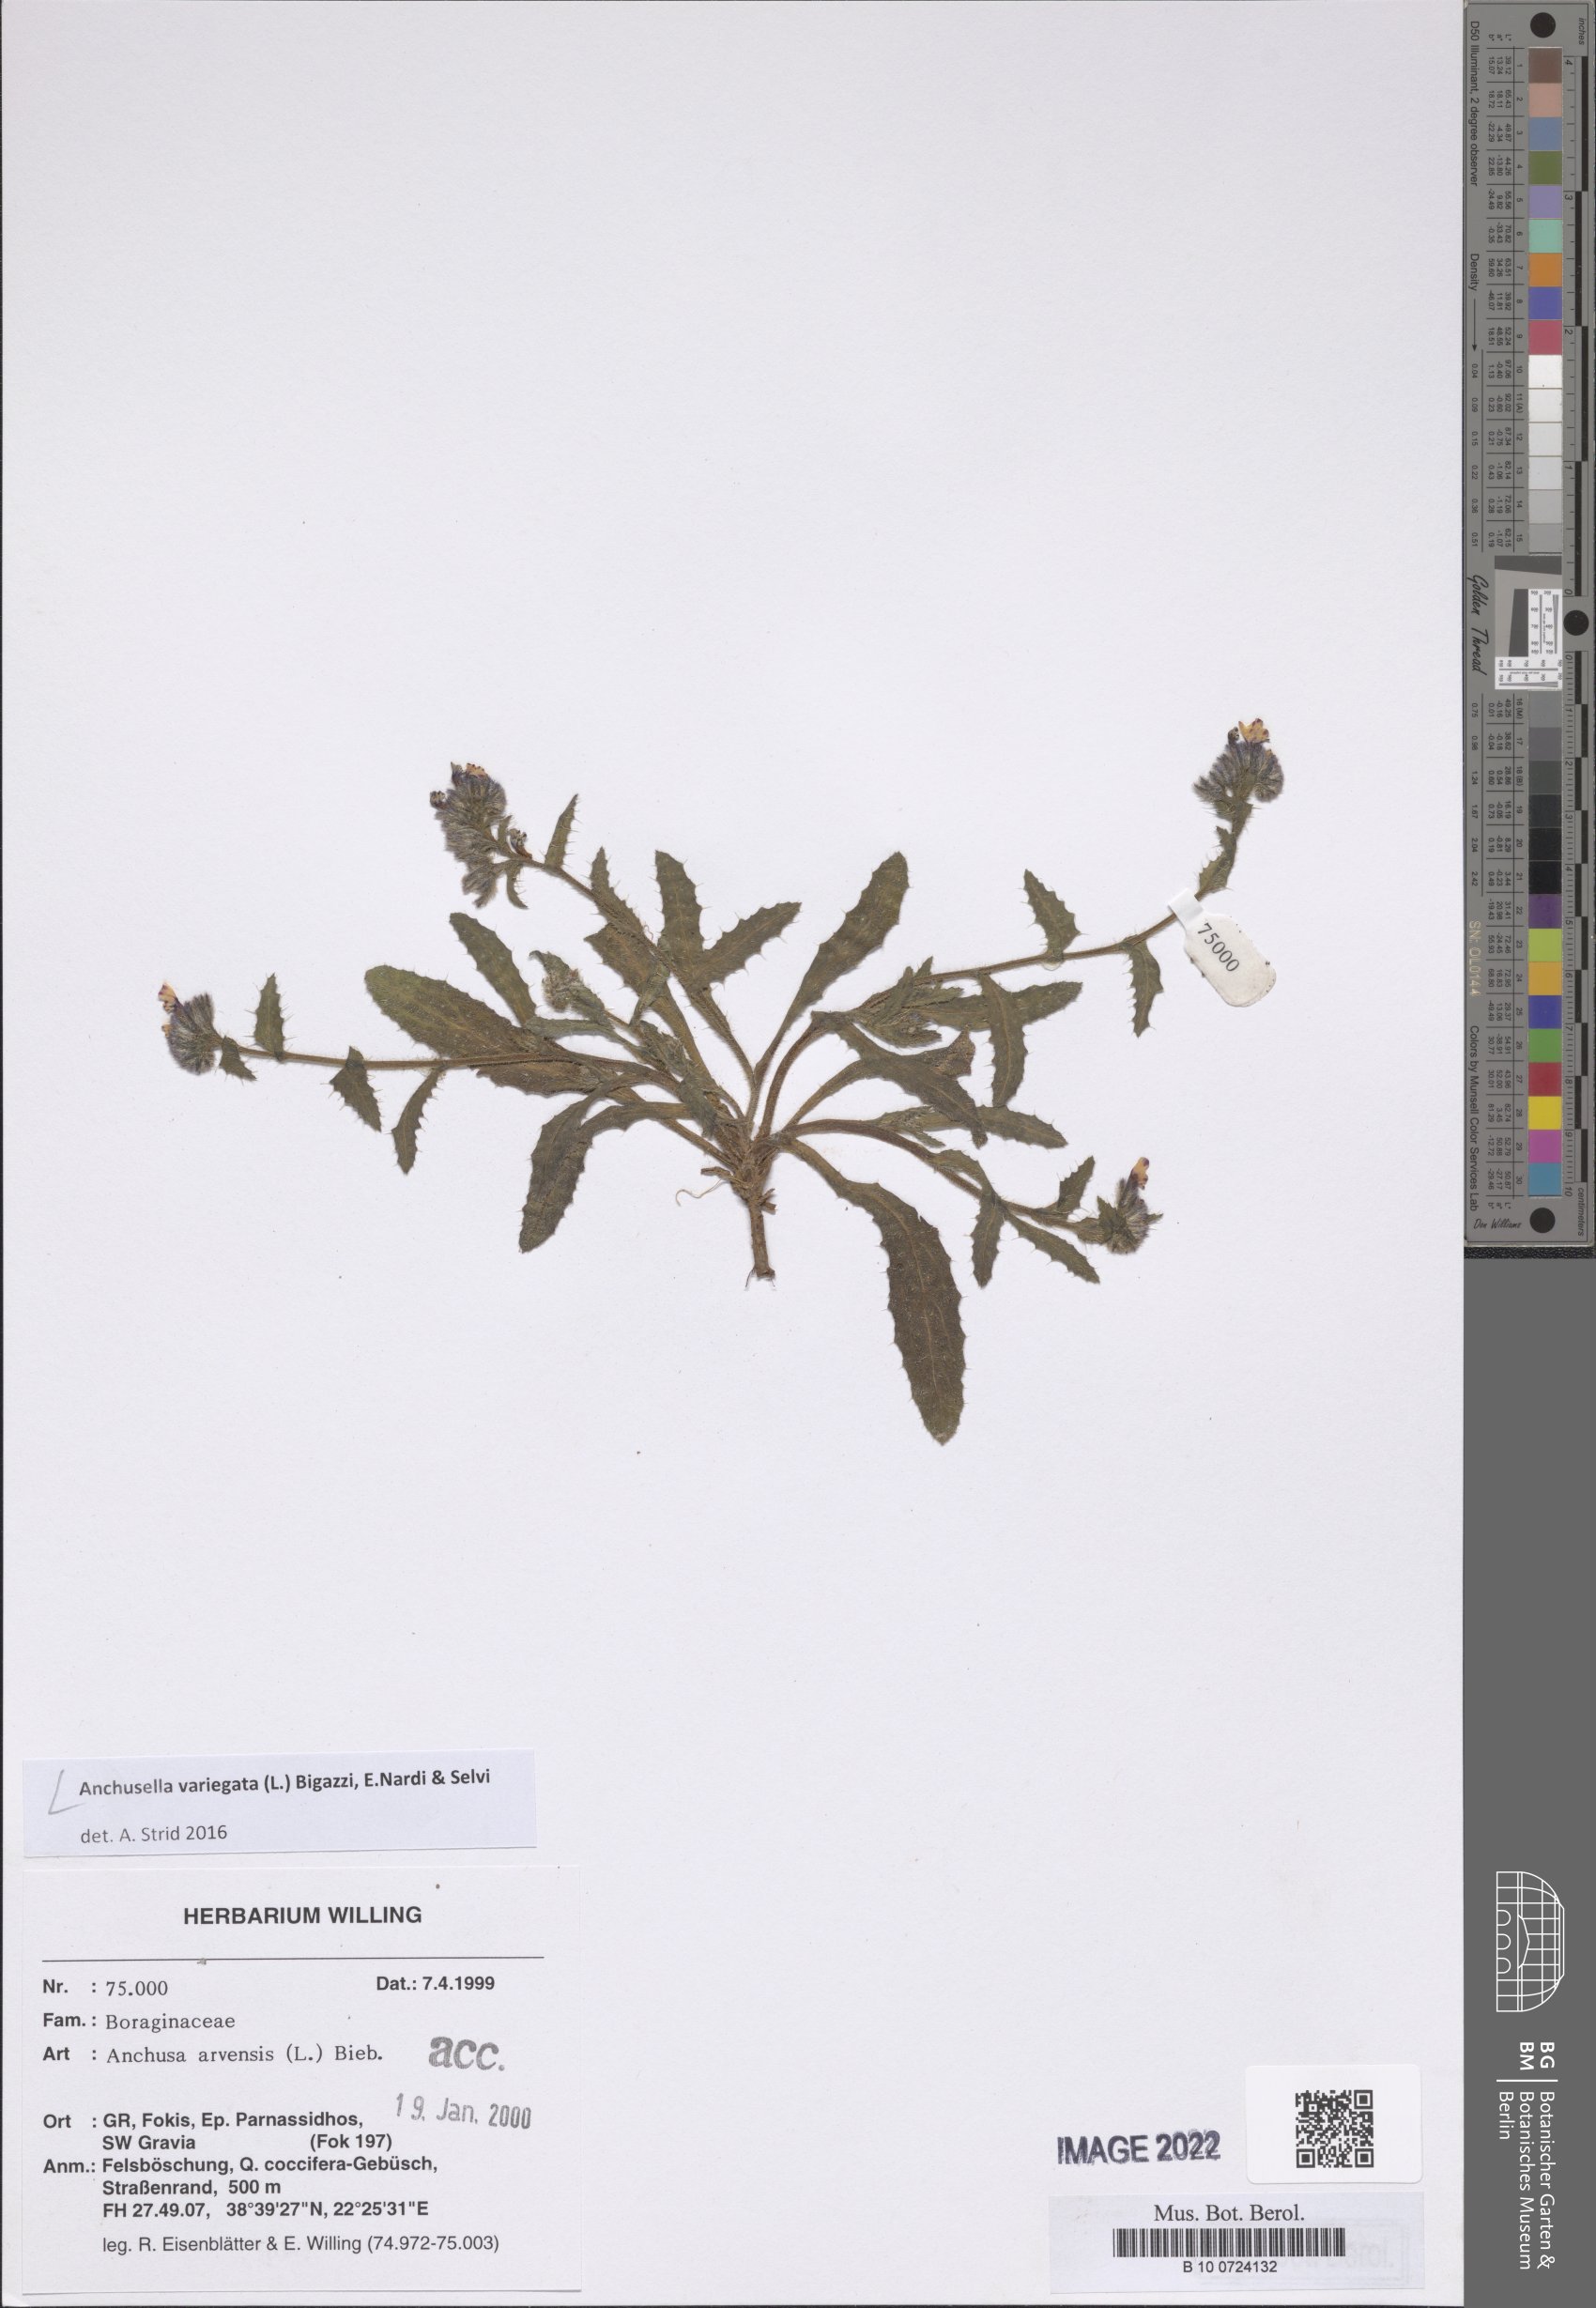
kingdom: Plantae
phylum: Tracheophyta
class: Magnoliopsida
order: Boraginales
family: Boraginaceae
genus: Anchusella
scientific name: Anchusella variegata
